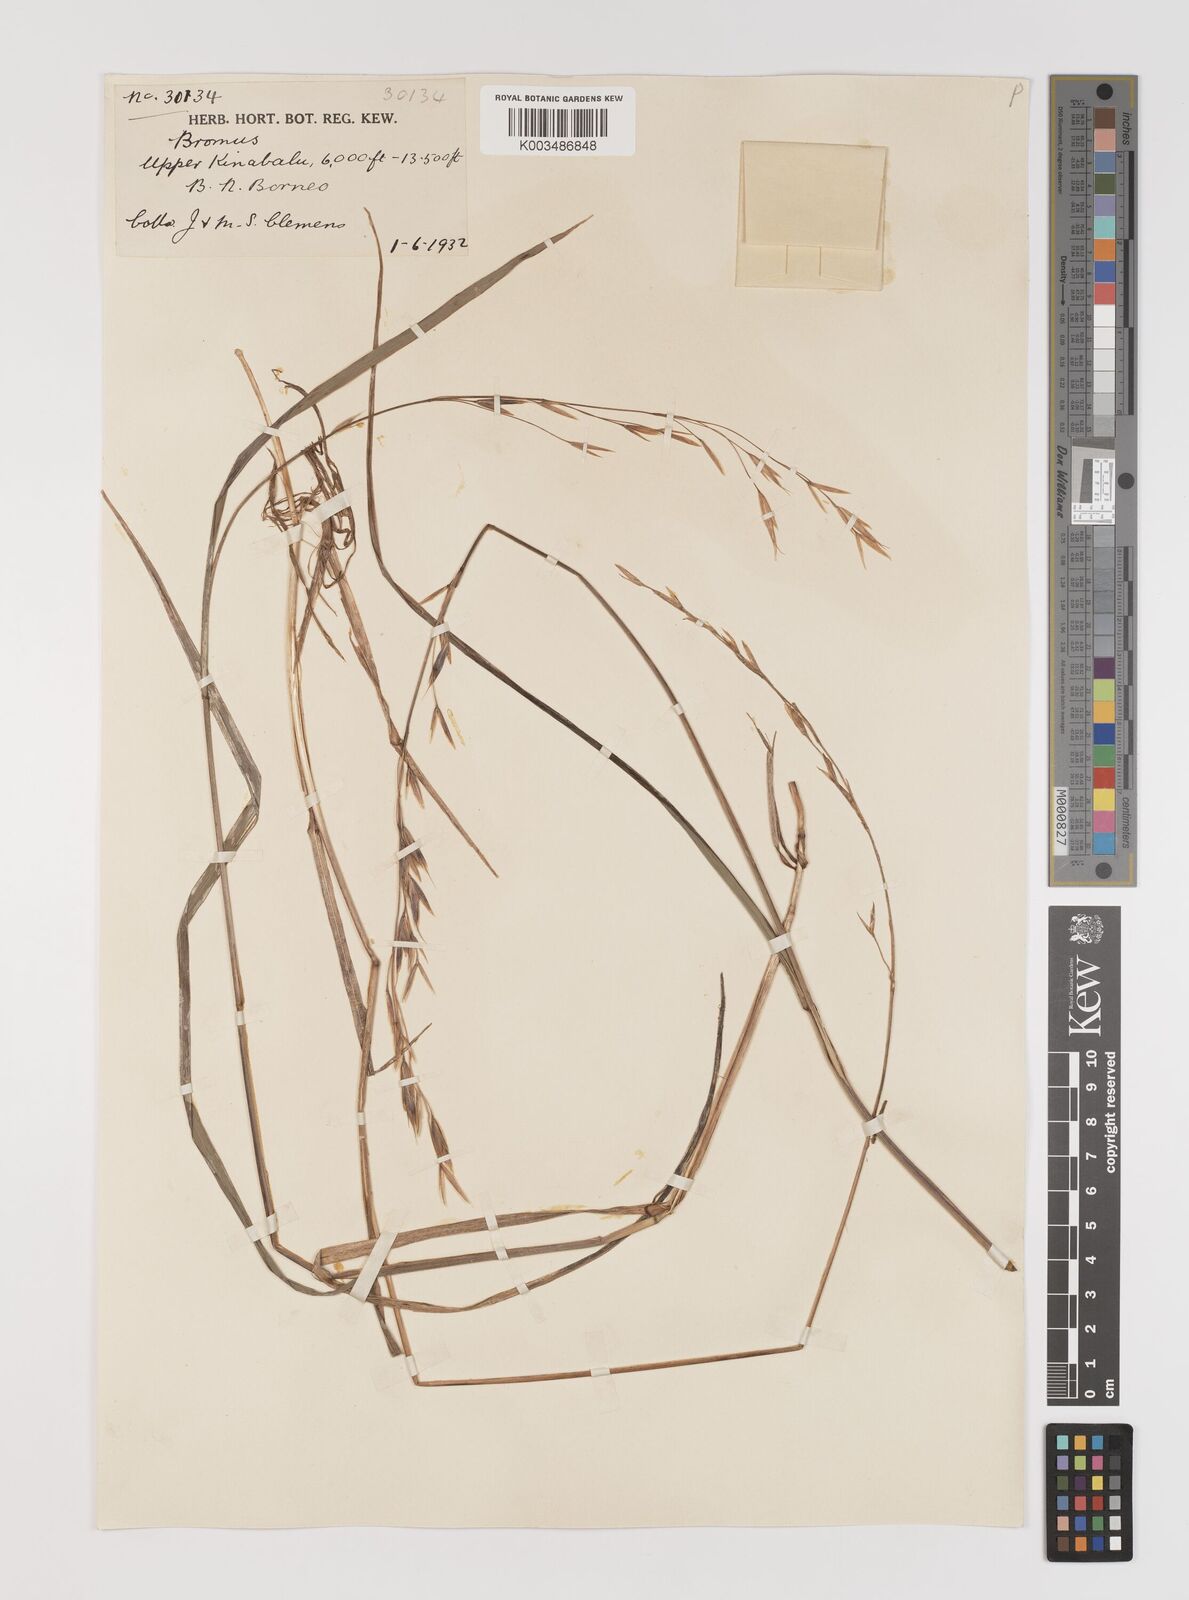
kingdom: Plantae
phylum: Tracheophyta
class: Liliopsida
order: Poales
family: Poaceae
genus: Bromus
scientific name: Bromus formosanus
